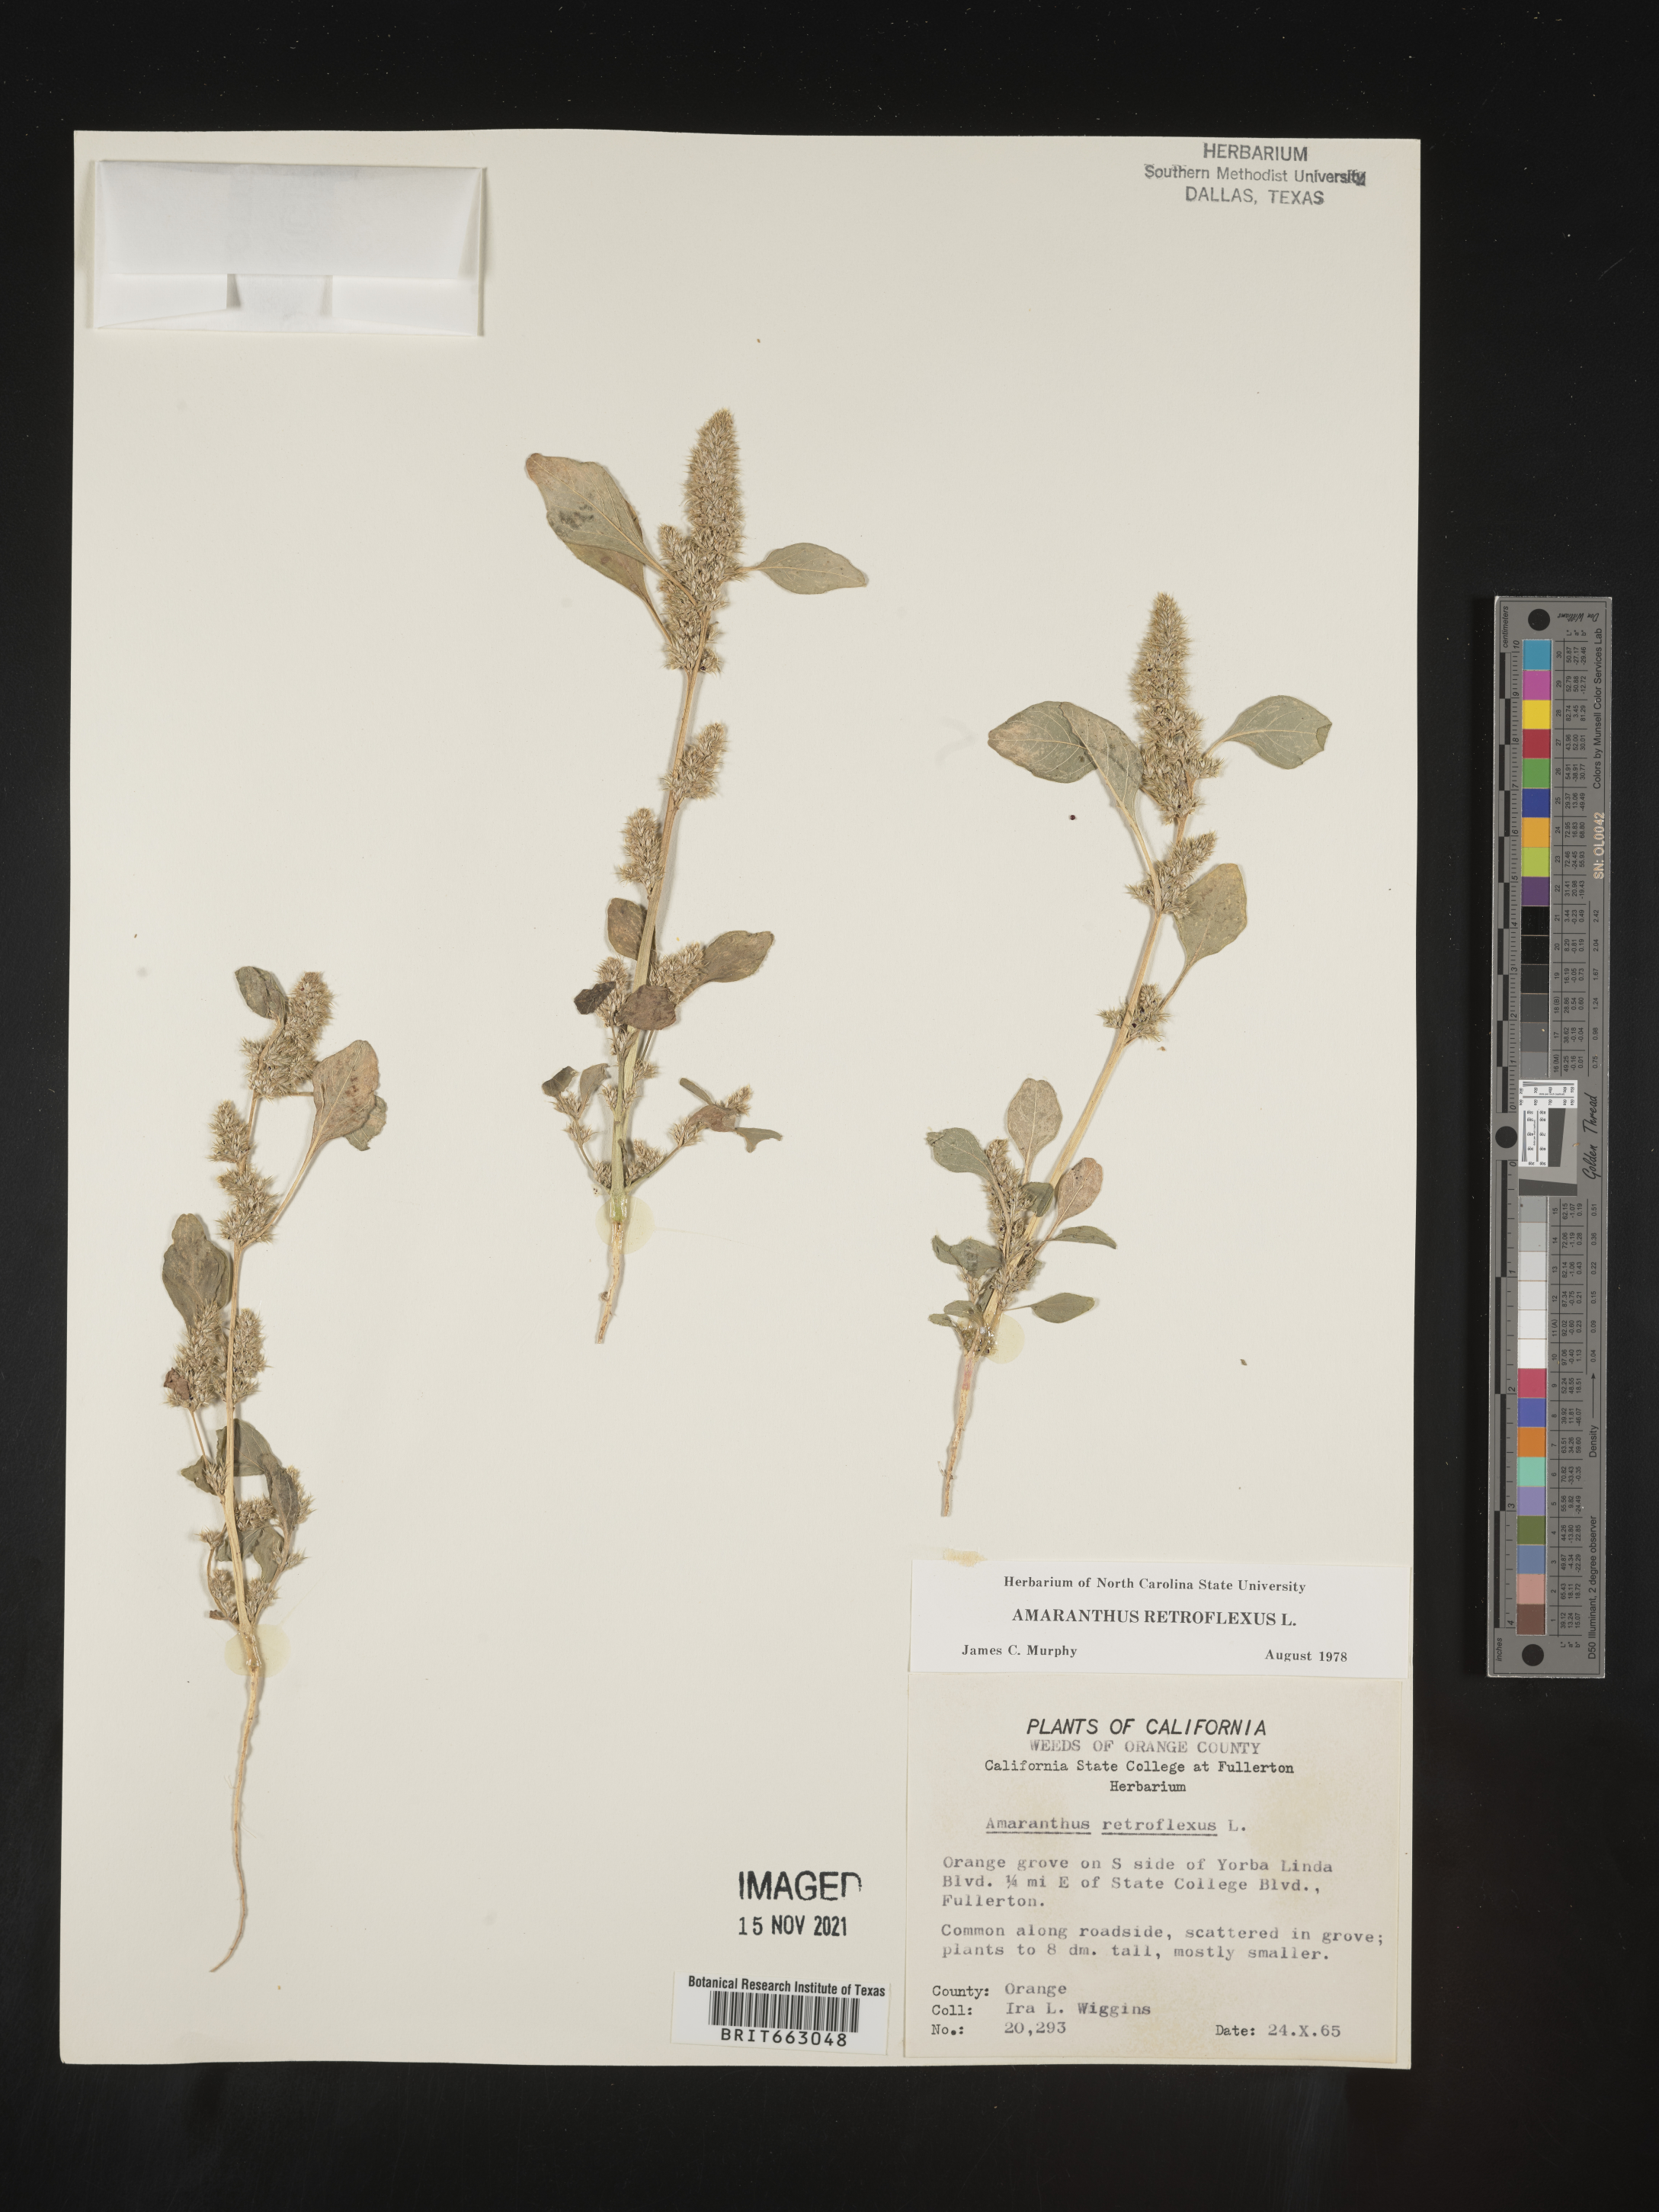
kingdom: Plantae
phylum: Tracheophyta
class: Magnoliopsida
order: Caryophyllales
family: Amaranthaceae
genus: Amaranthus
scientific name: Amaranthus retroflexus
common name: Redroot amaranth
